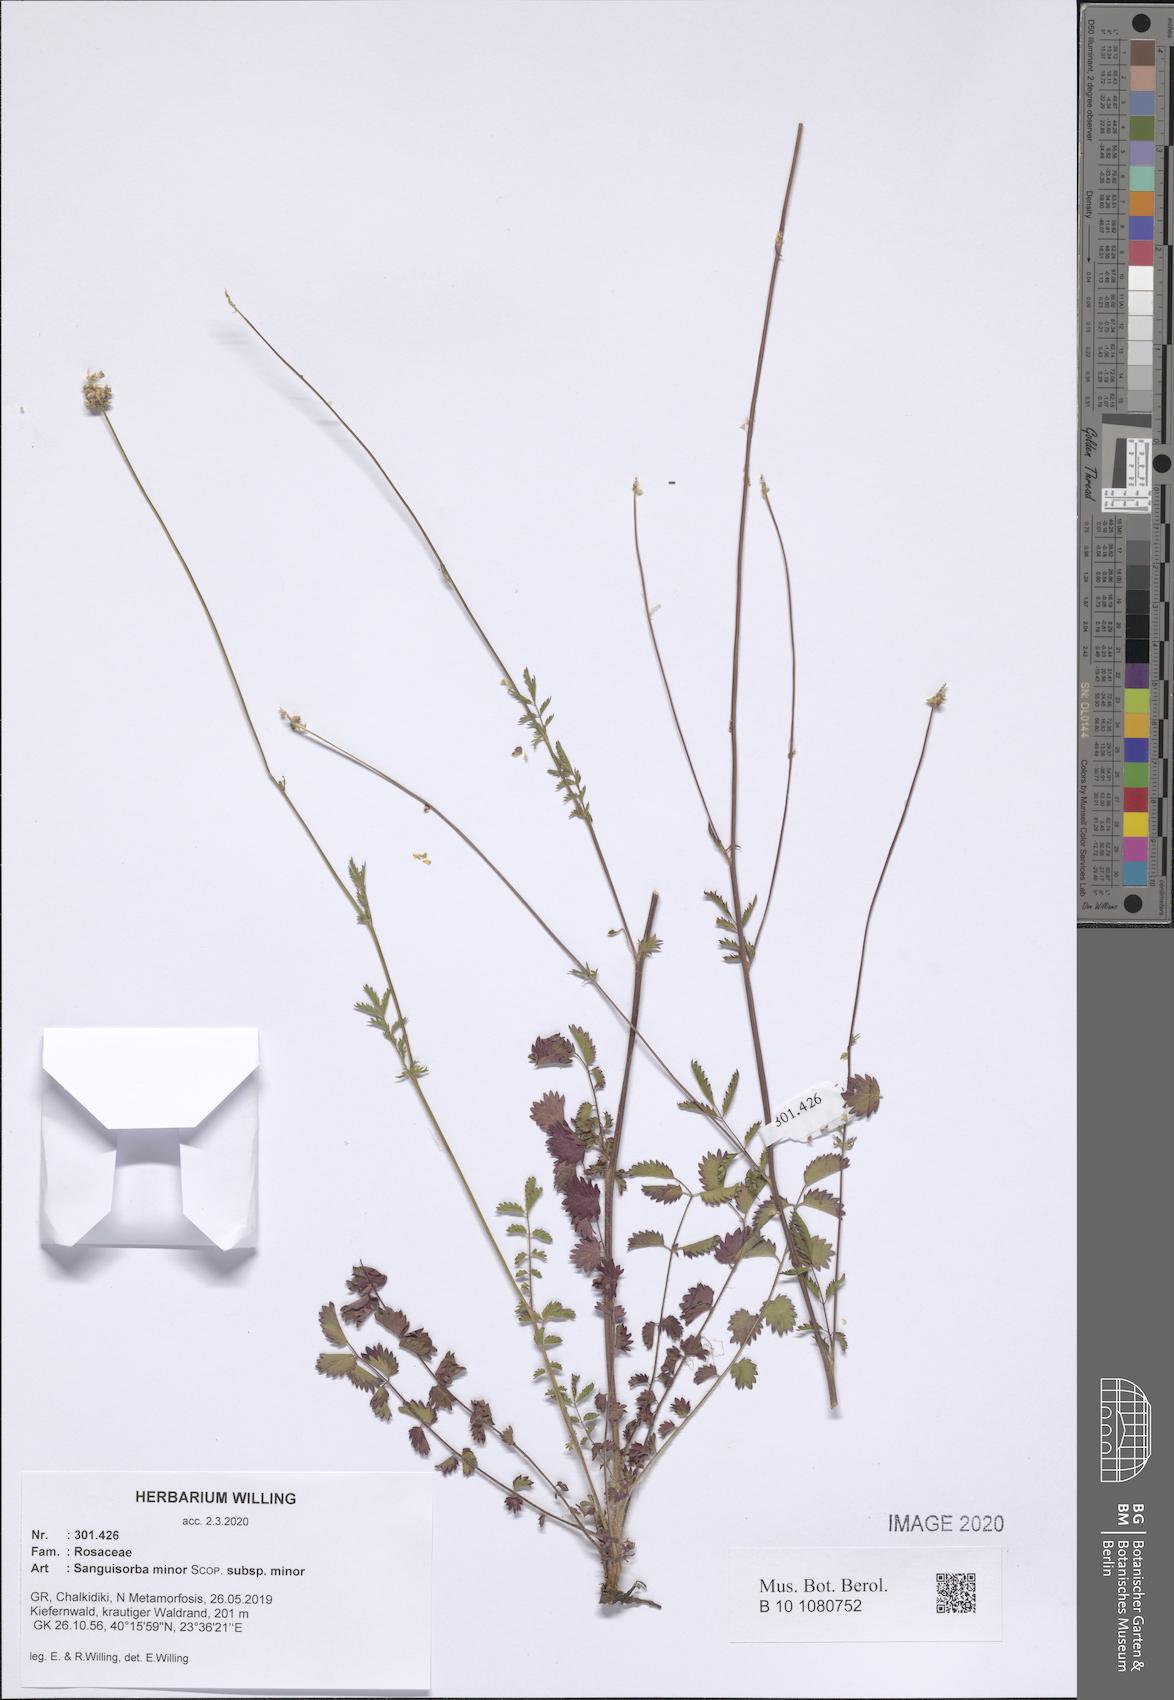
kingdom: Plantae
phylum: Tracheophyta
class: Magnoliopsida
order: Rosales
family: Rosaceae
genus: Poterium
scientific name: Poterium sanguisorba
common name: Salad burnet
